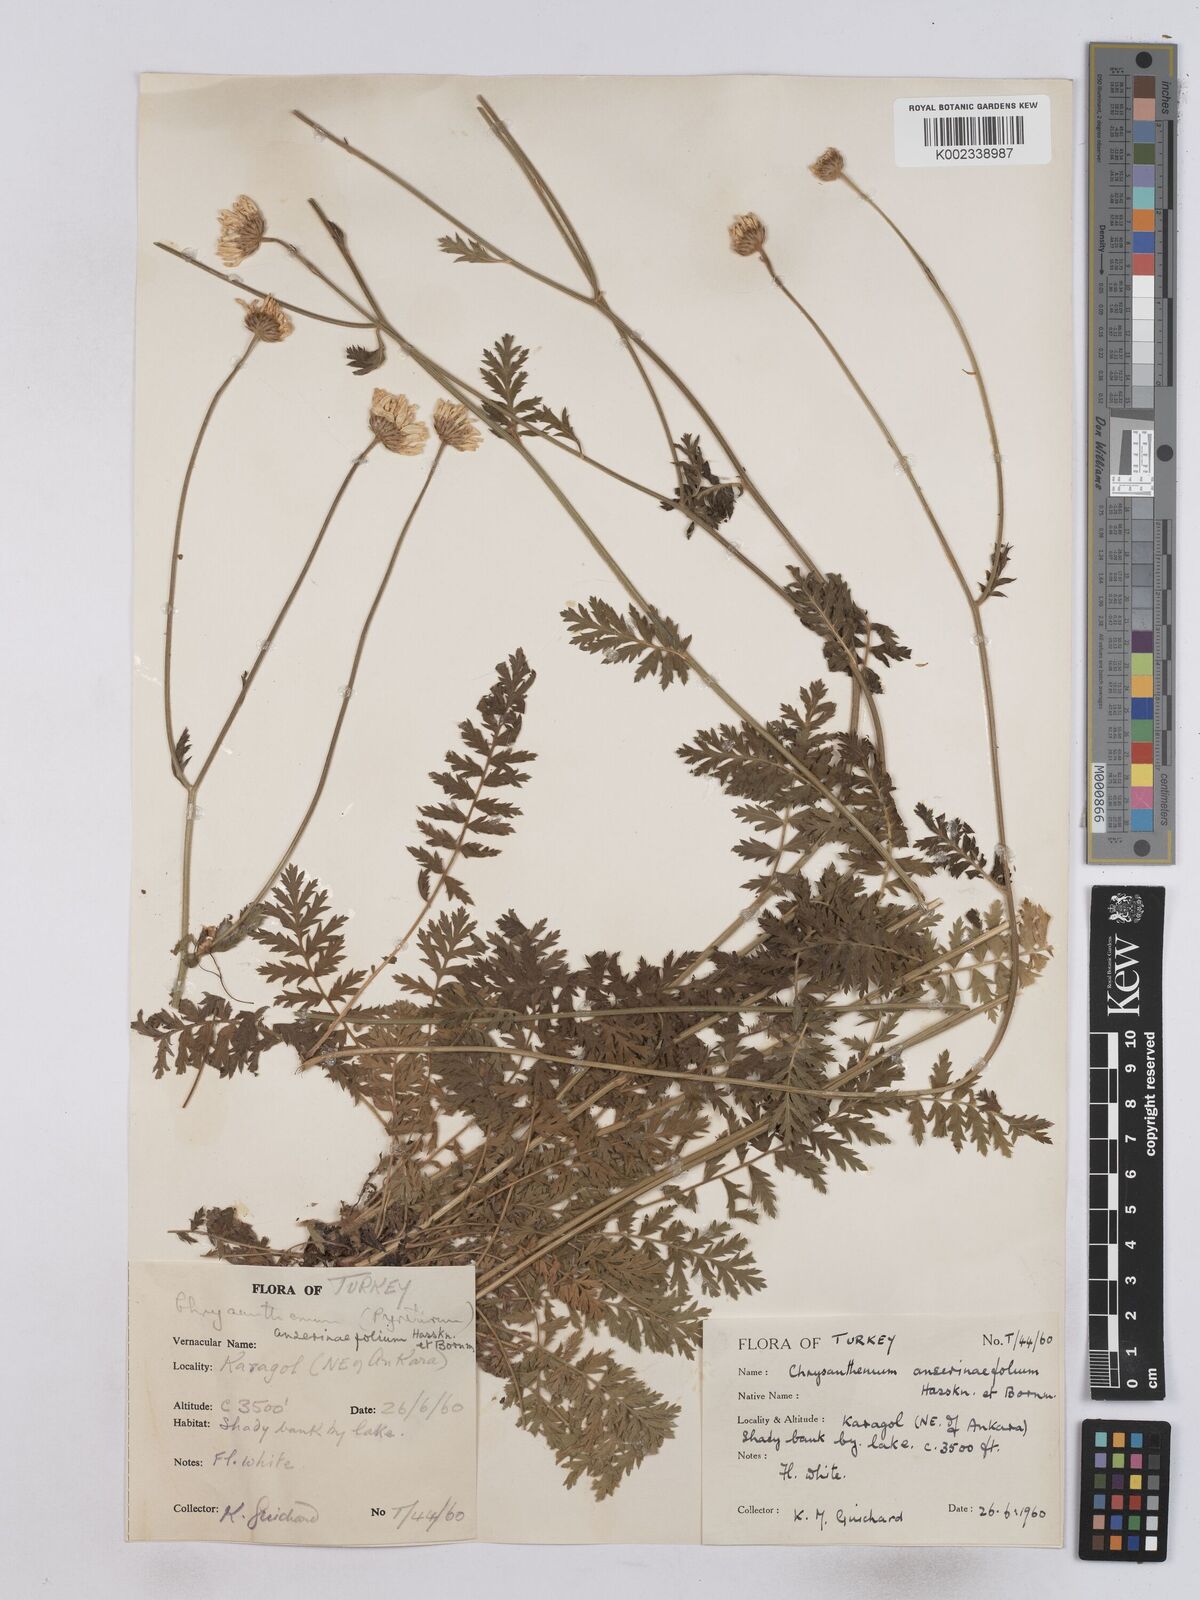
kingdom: Plantae
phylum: Tracheophyta
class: Magnoliopsida
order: Asterales
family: Asteraceae
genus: Tanacetum
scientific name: Tanacetum
